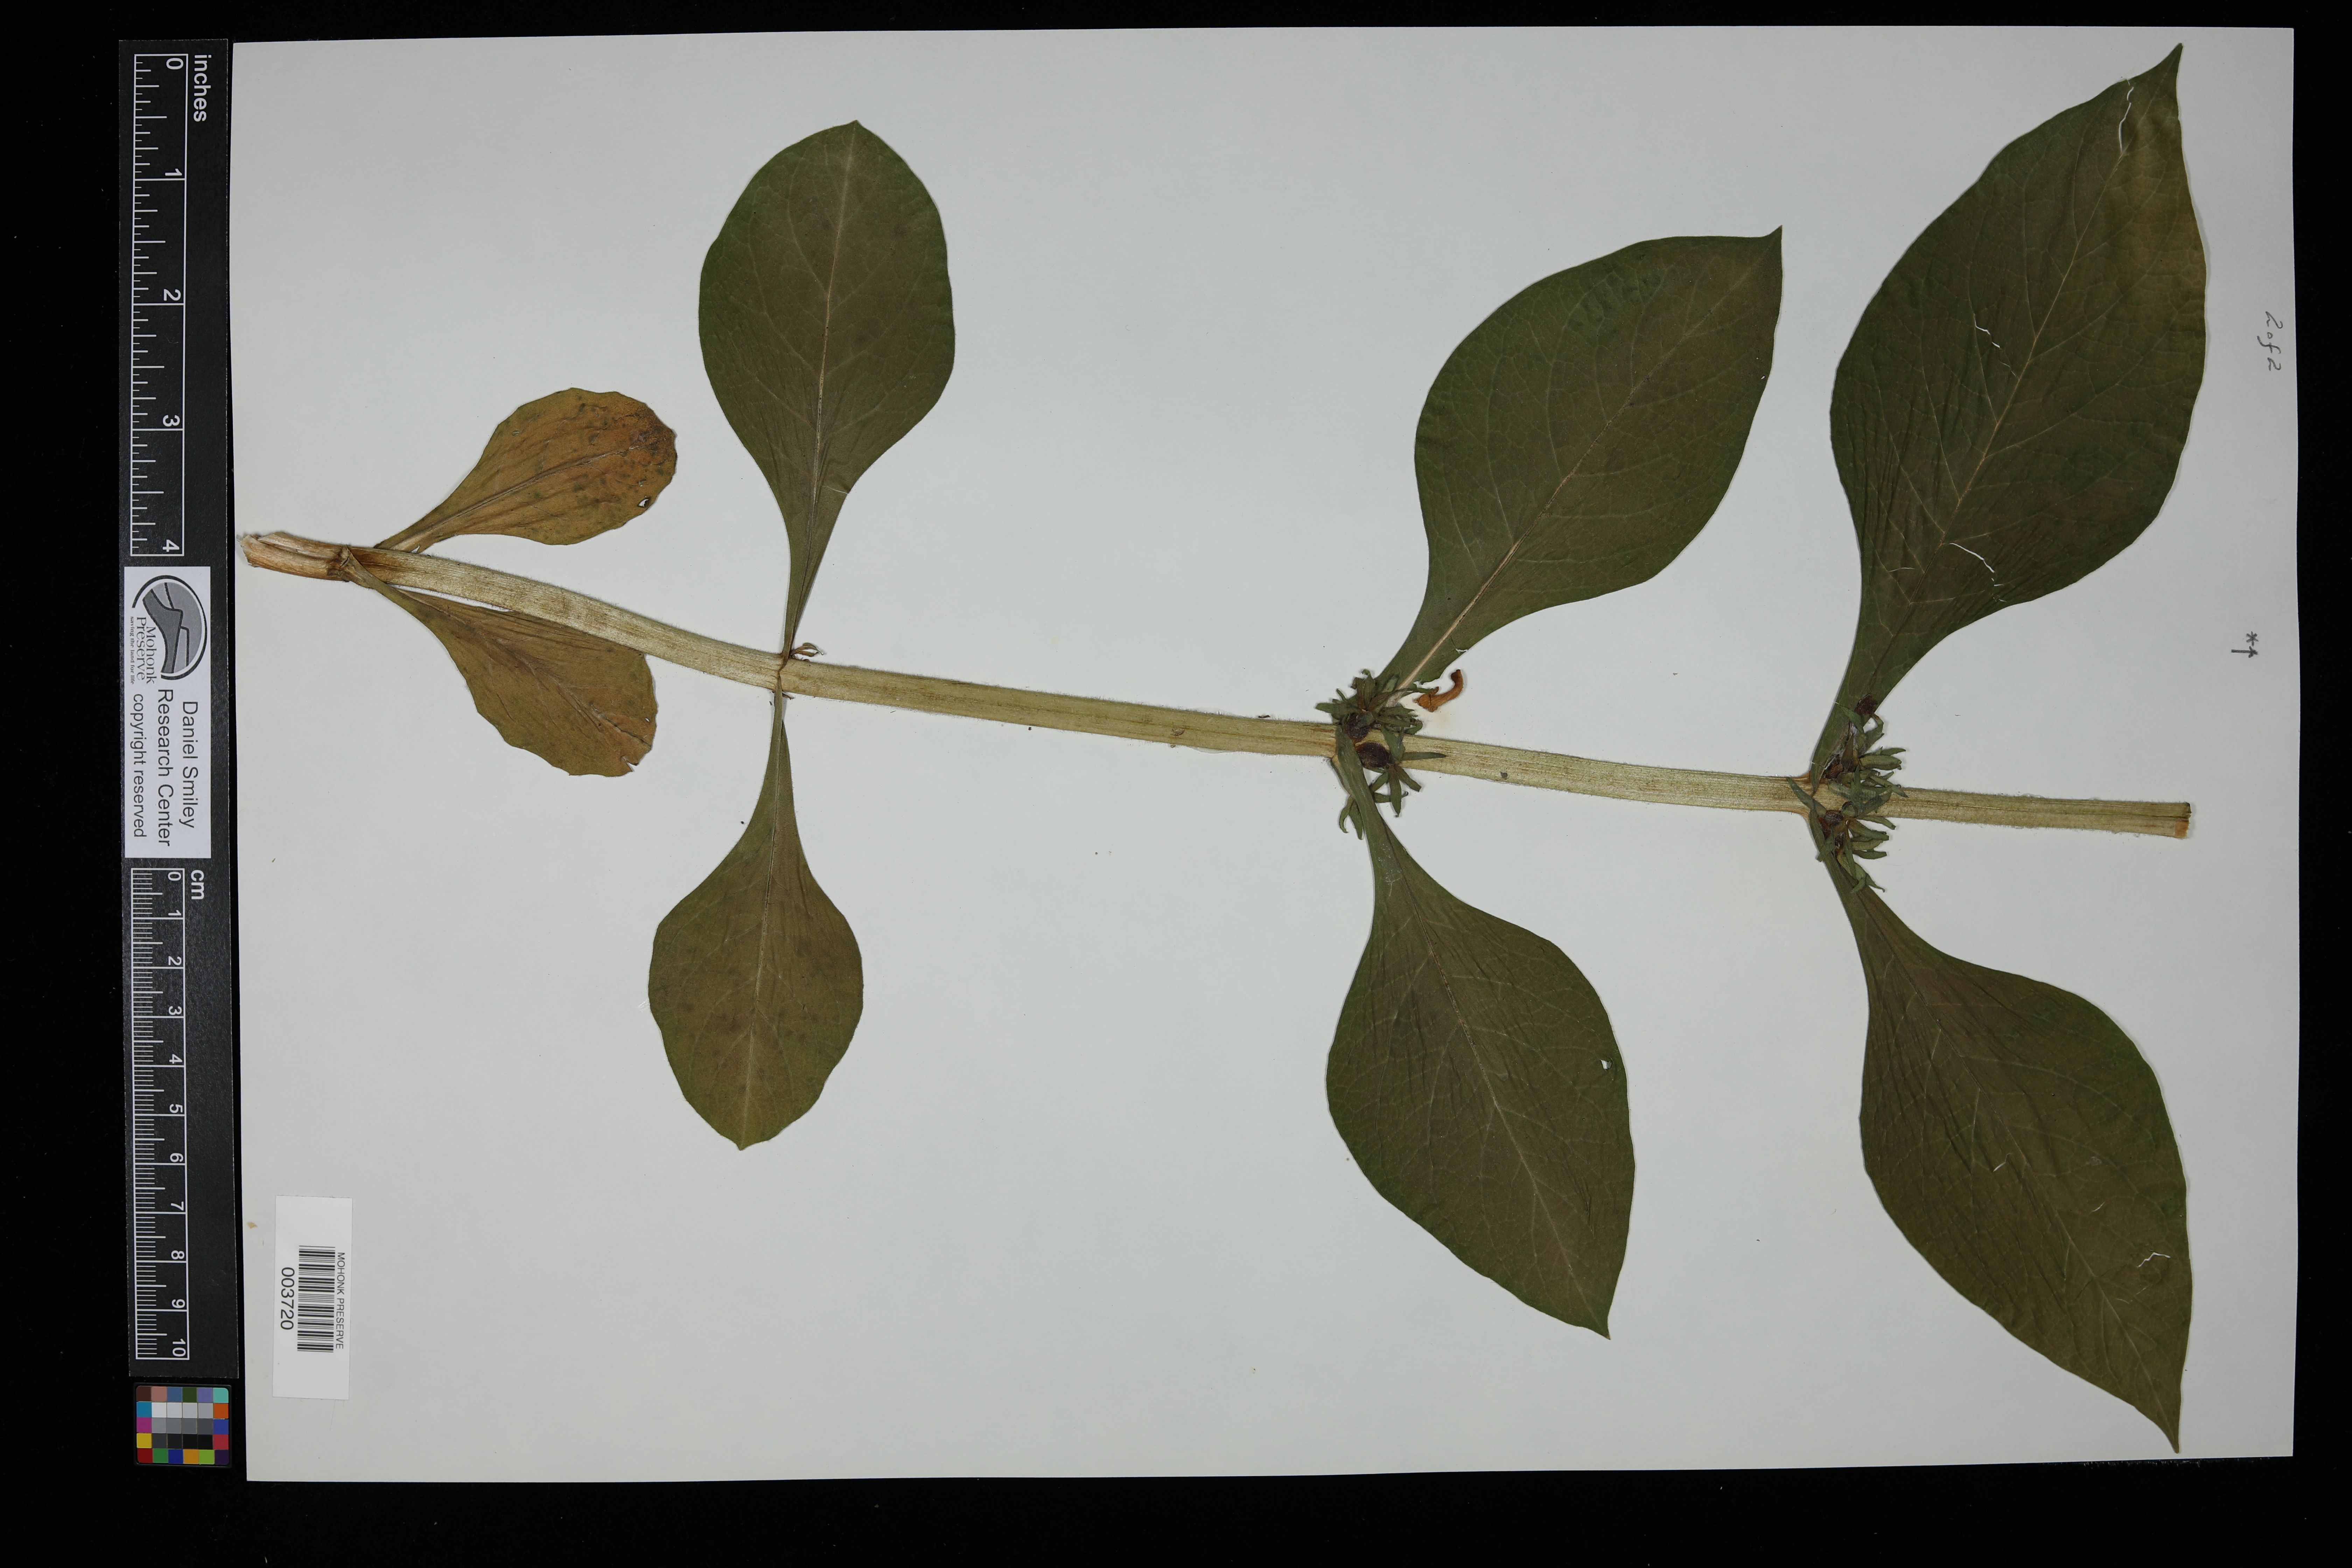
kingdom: Plantae
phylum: Tracheophyta
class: Magnoliopsida
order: Dipsacales
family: Caprifoliaceae
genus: Triosteum
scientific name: Triosteum perfoliatum
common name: Common horse-gentian
